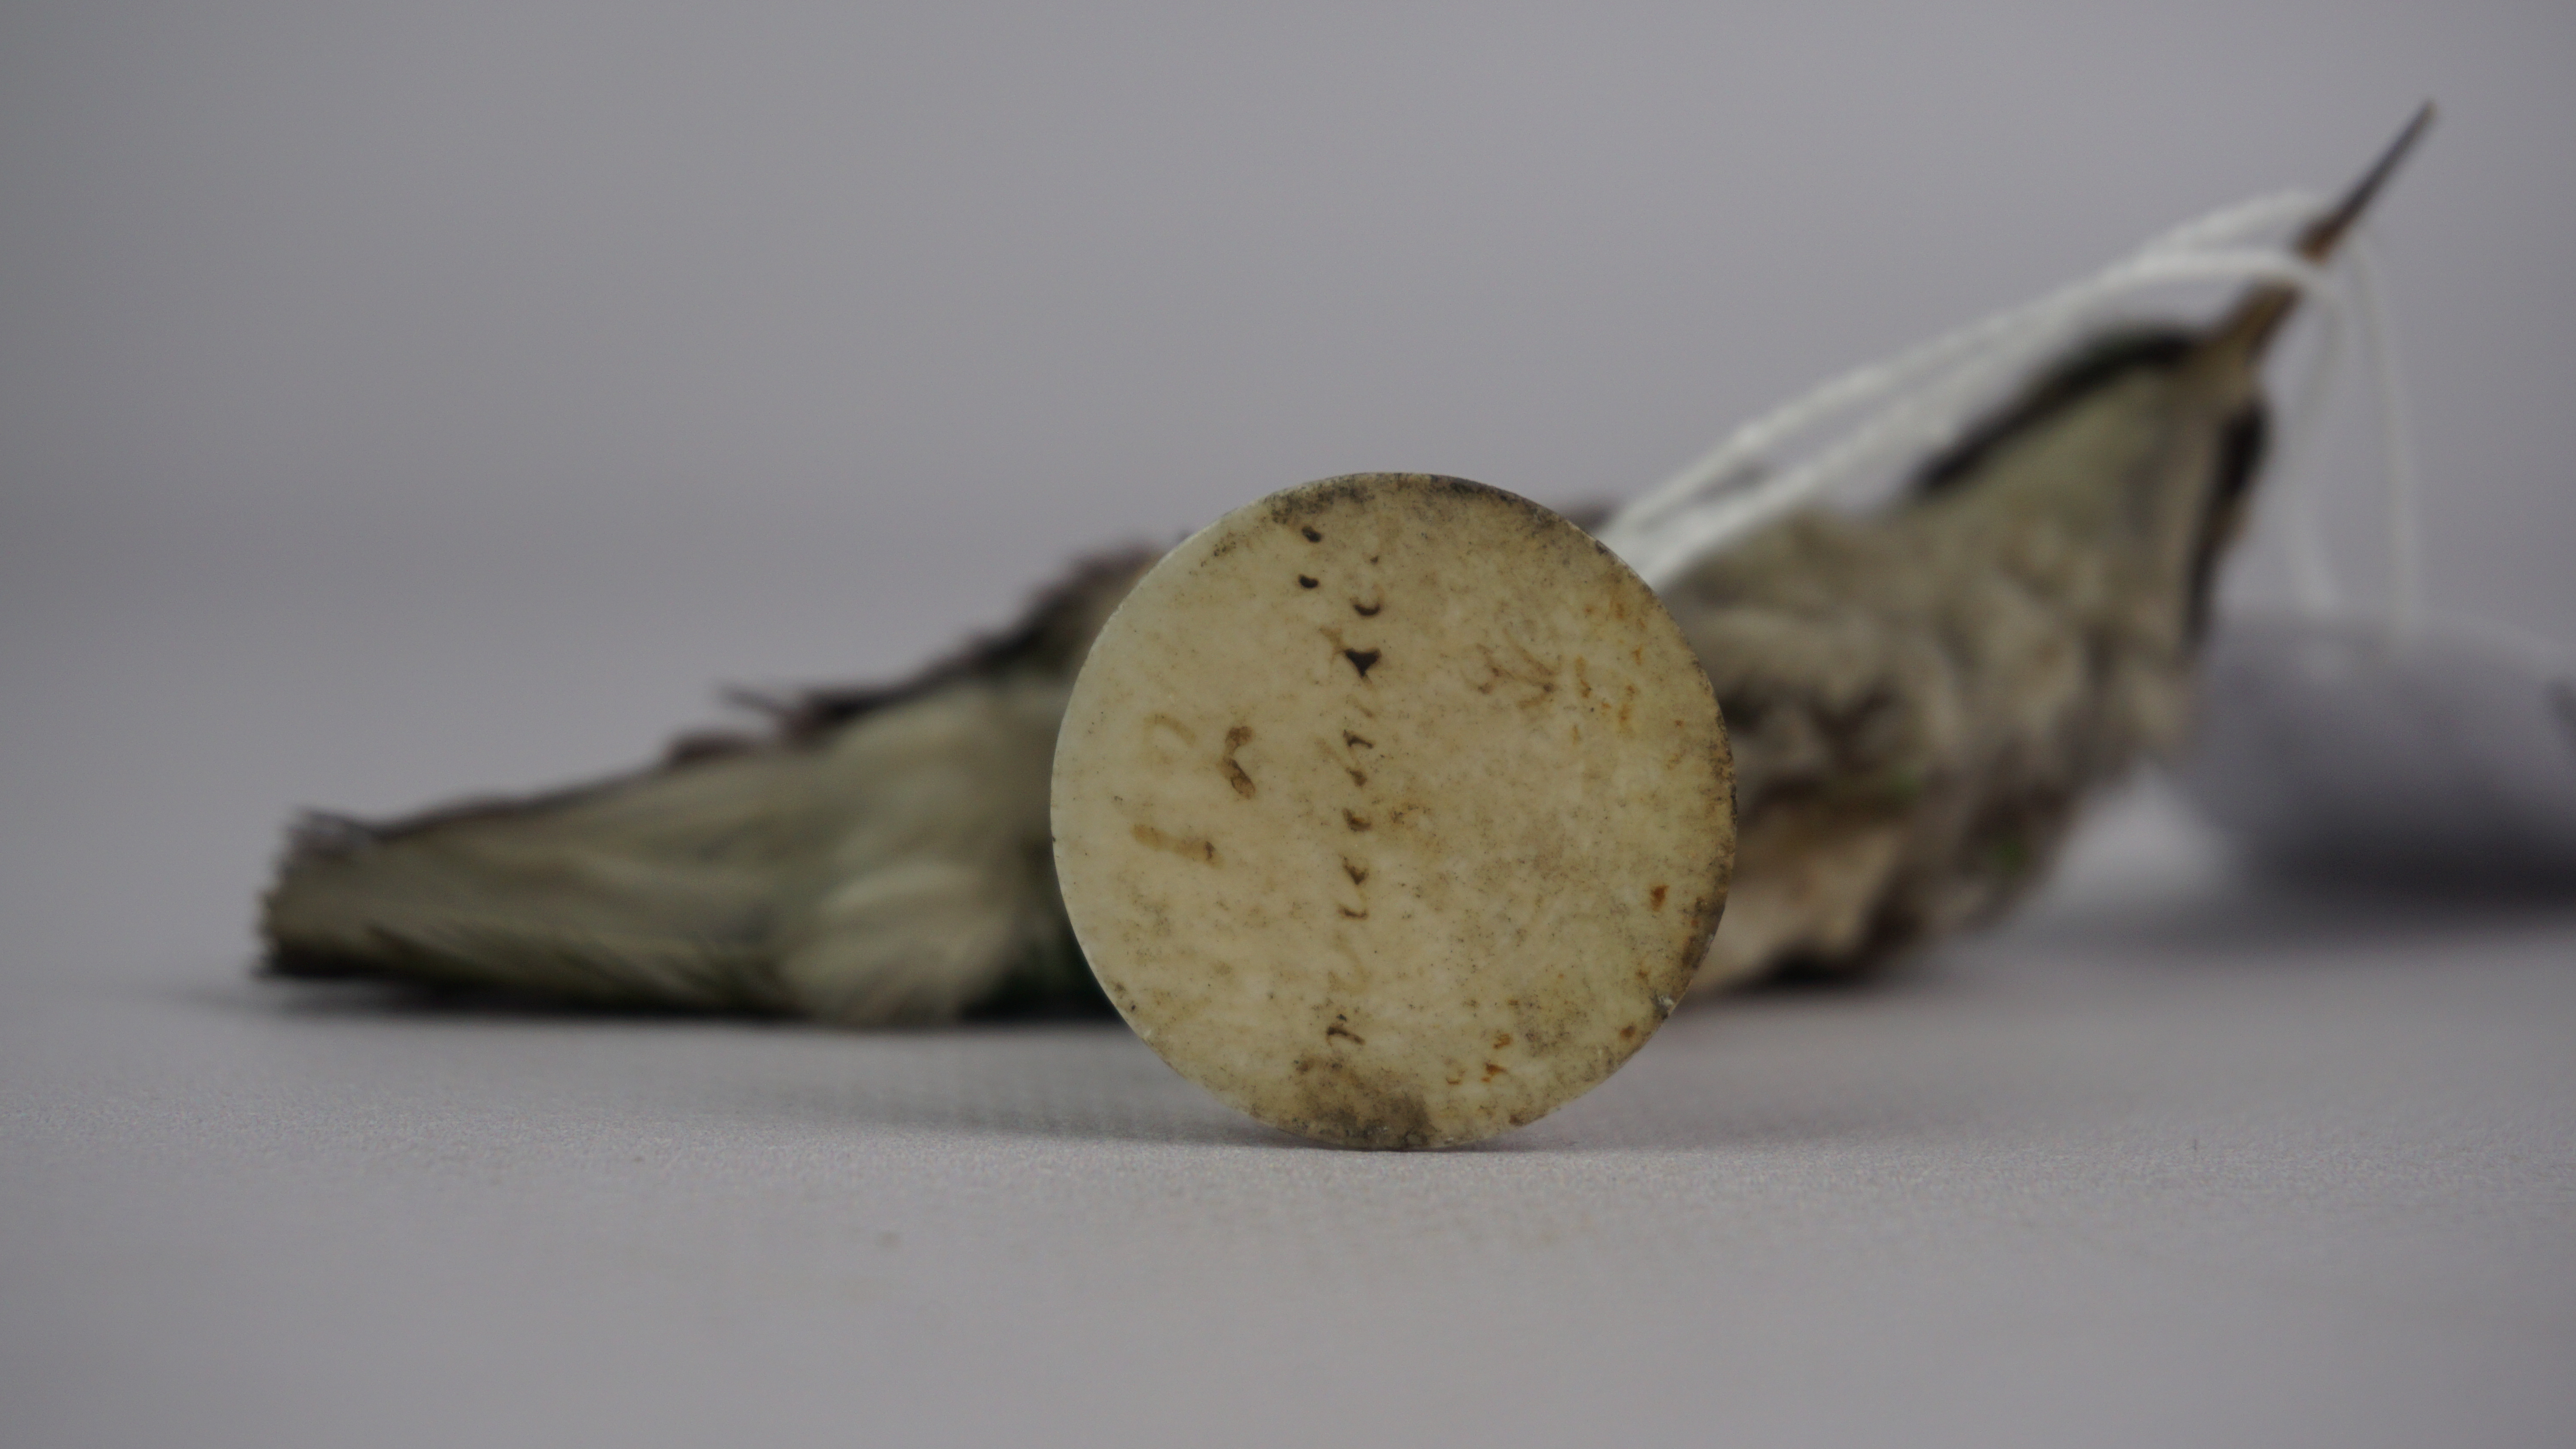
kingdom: Animalia
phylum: Chordata
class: Aves
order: Apodiformes
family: Trochilidae
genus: Heliothryx
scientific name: Heliothryx auritus
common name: Black-eared fairy
